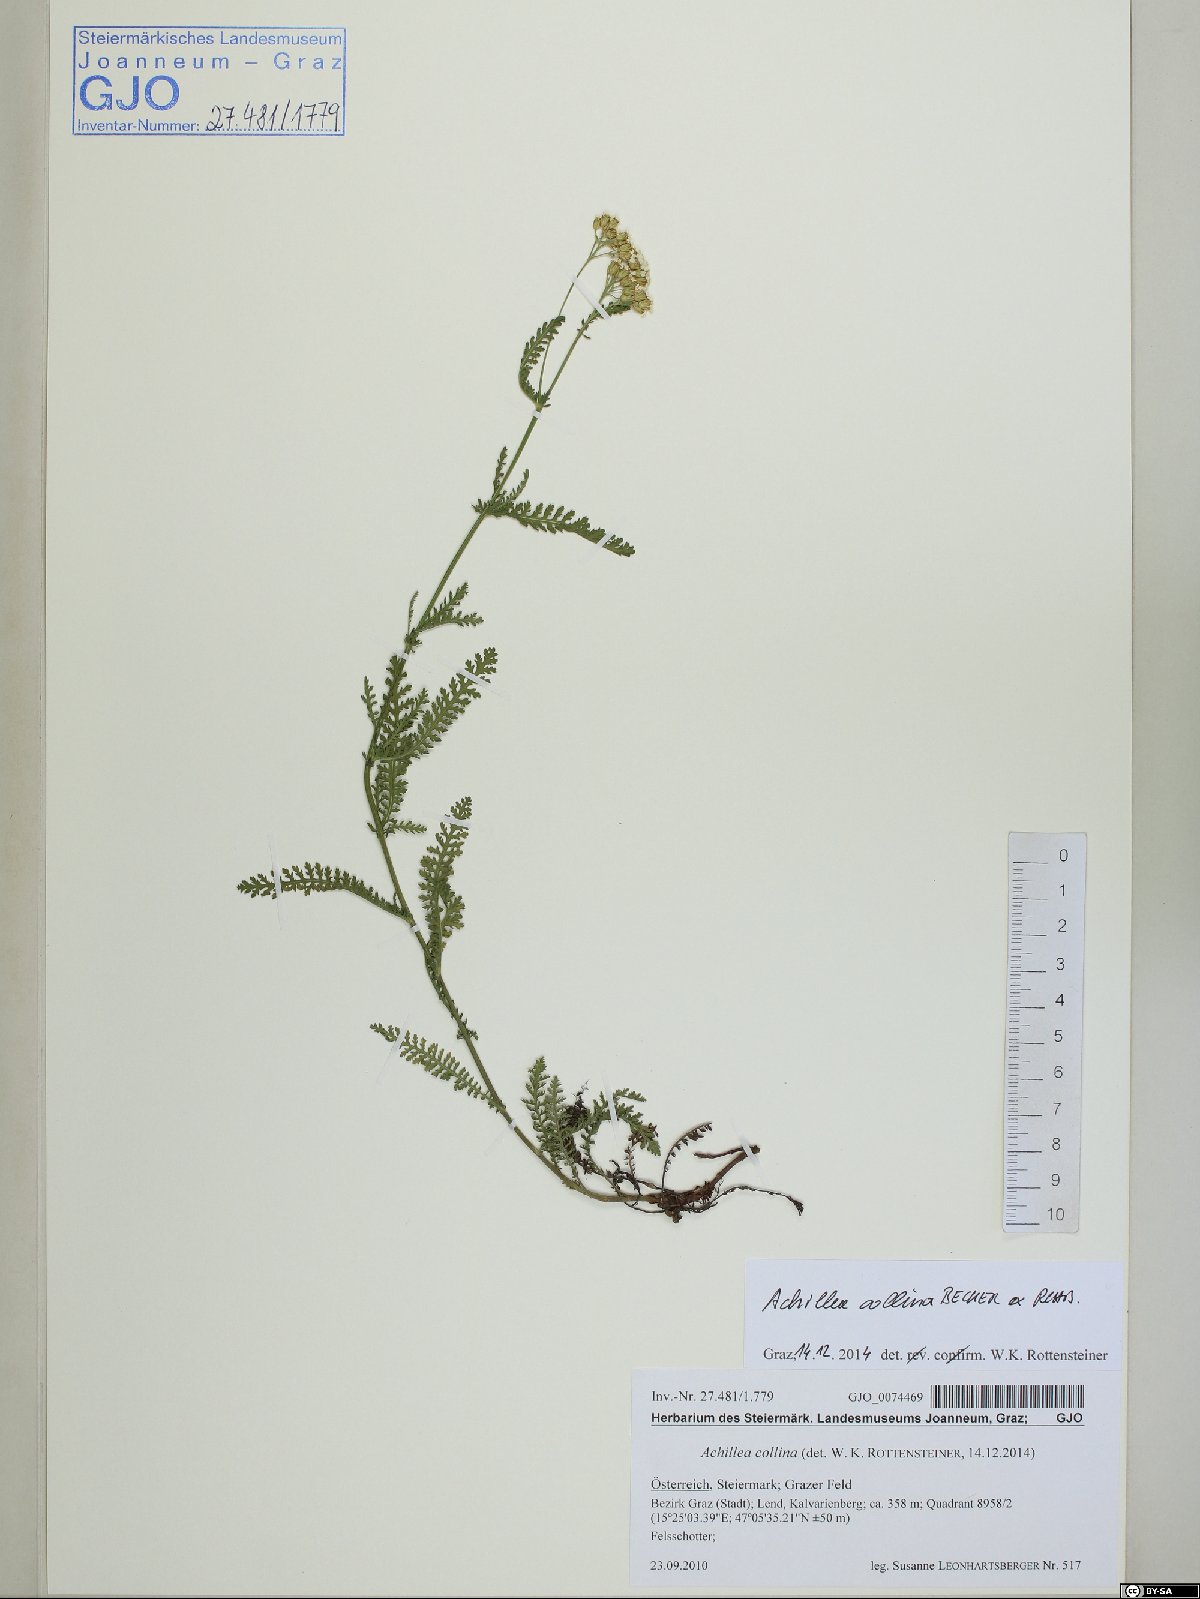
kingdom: Plantae
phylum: Tracheophyta
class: Magnoliopsida
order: Asterales
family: Asteraceae
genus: Achillea
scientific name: Achillea collina
